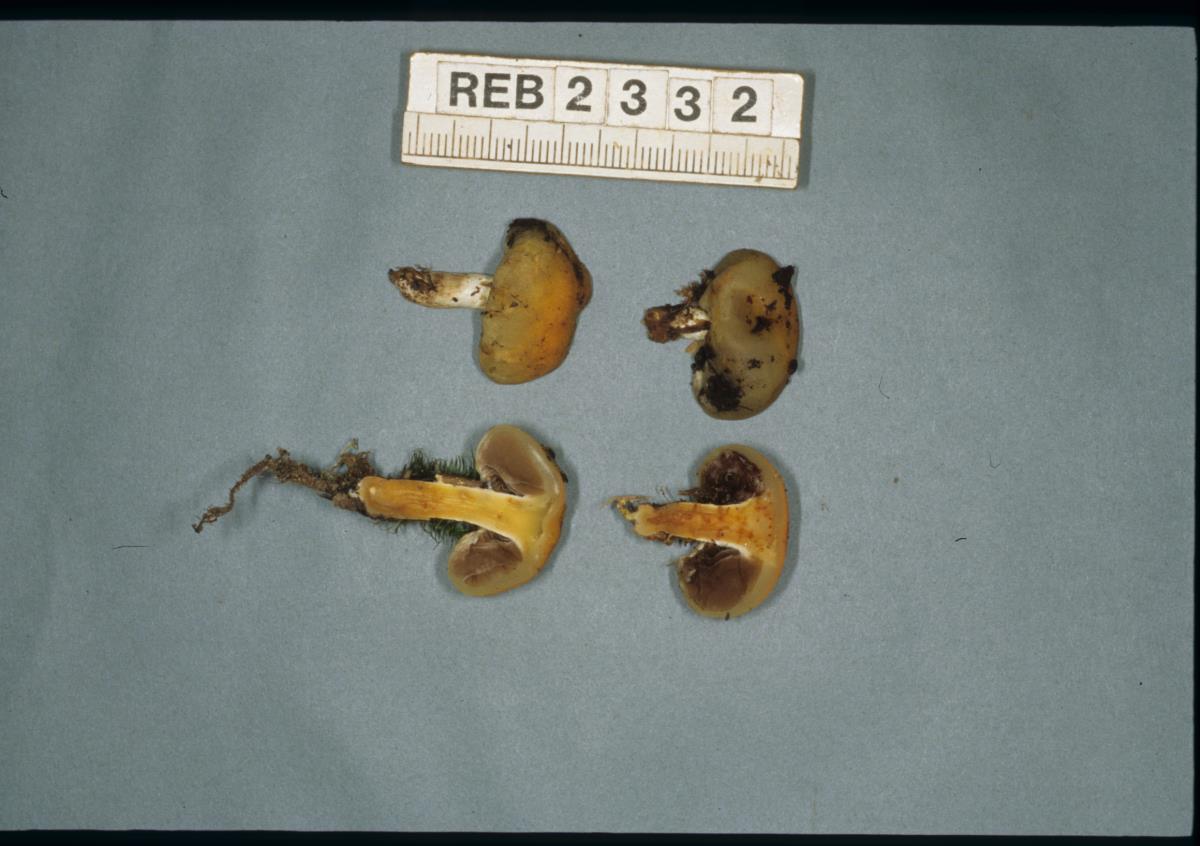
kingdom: Fungi
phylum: Basidiomycota
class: Agaricomycetes
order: Agaricales
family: Hymenogastraceae
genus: Psilocybe
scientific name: Psilocybe
